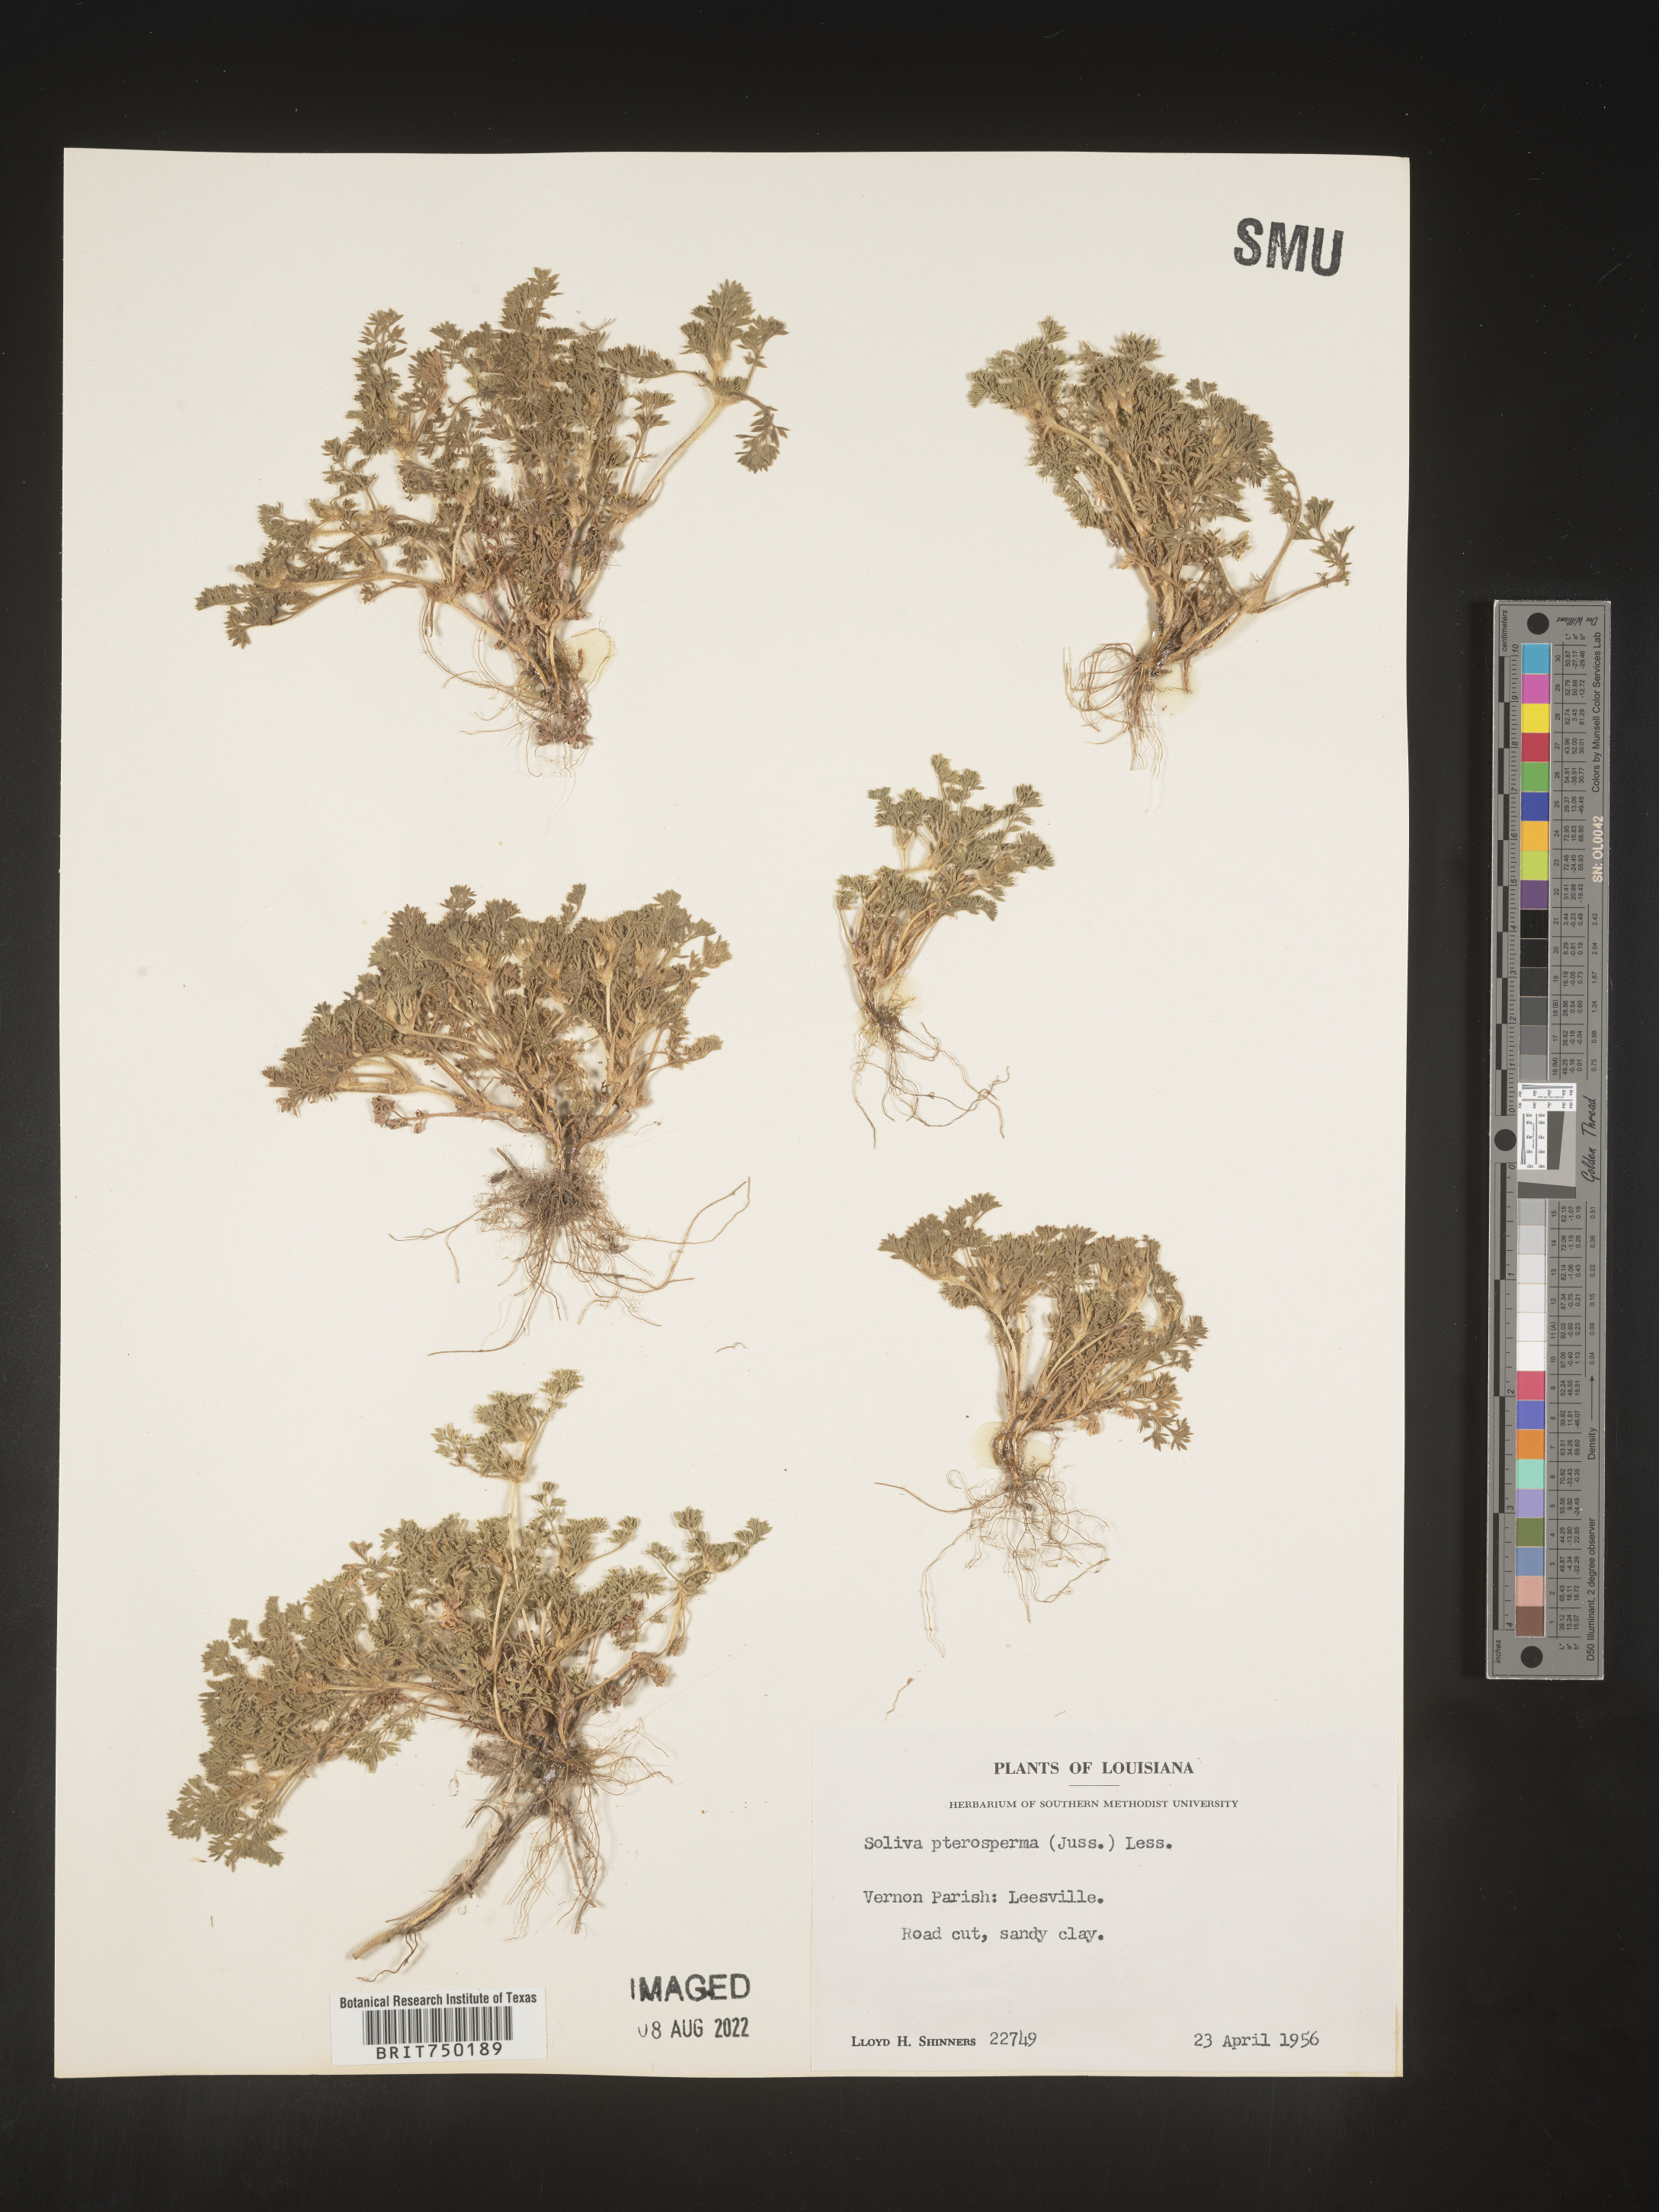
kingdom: Plantae
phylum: Tracheophyta
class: Magnoliopsida
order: Asterales
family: Asteraceae
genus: Soliva
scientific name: Soliva sessilis
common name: Field burrweed
